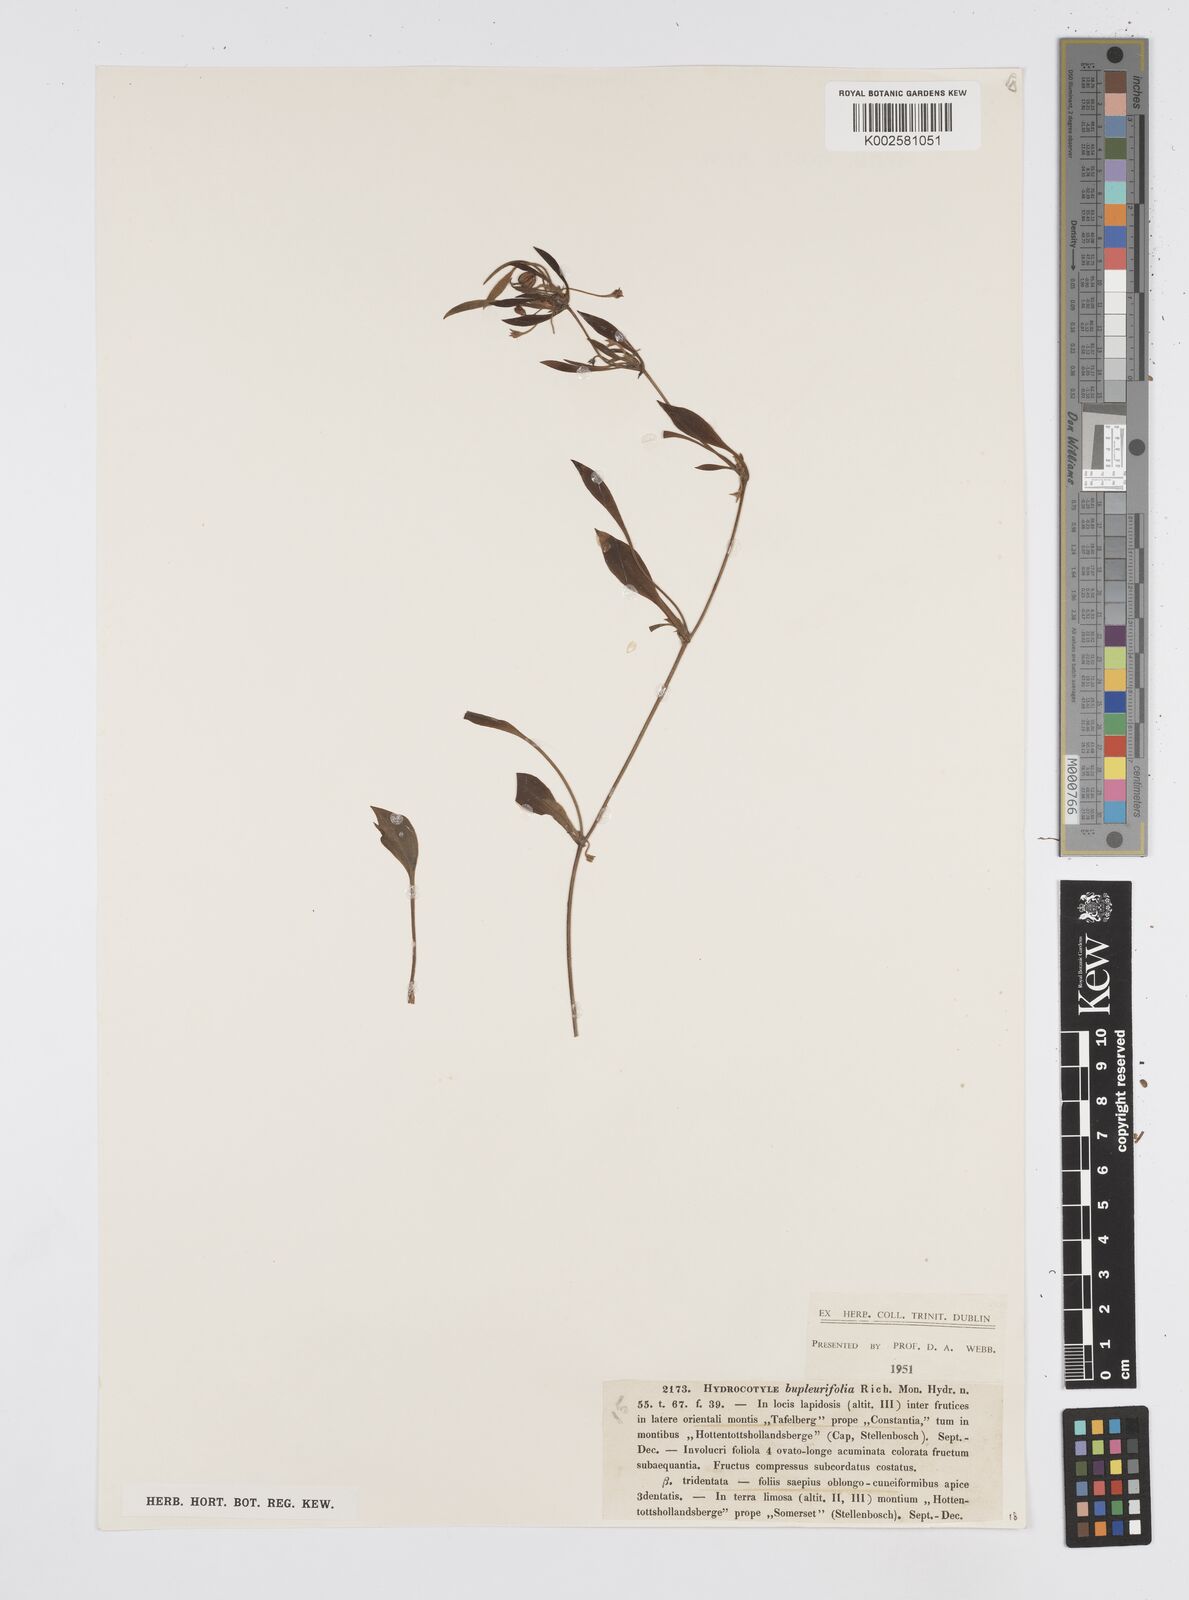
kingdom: Plantae
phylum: Tracheophyta
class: Magnoliopsida
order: Apiales
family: Apiaceae
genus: Centella
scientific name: Centella glabrata
